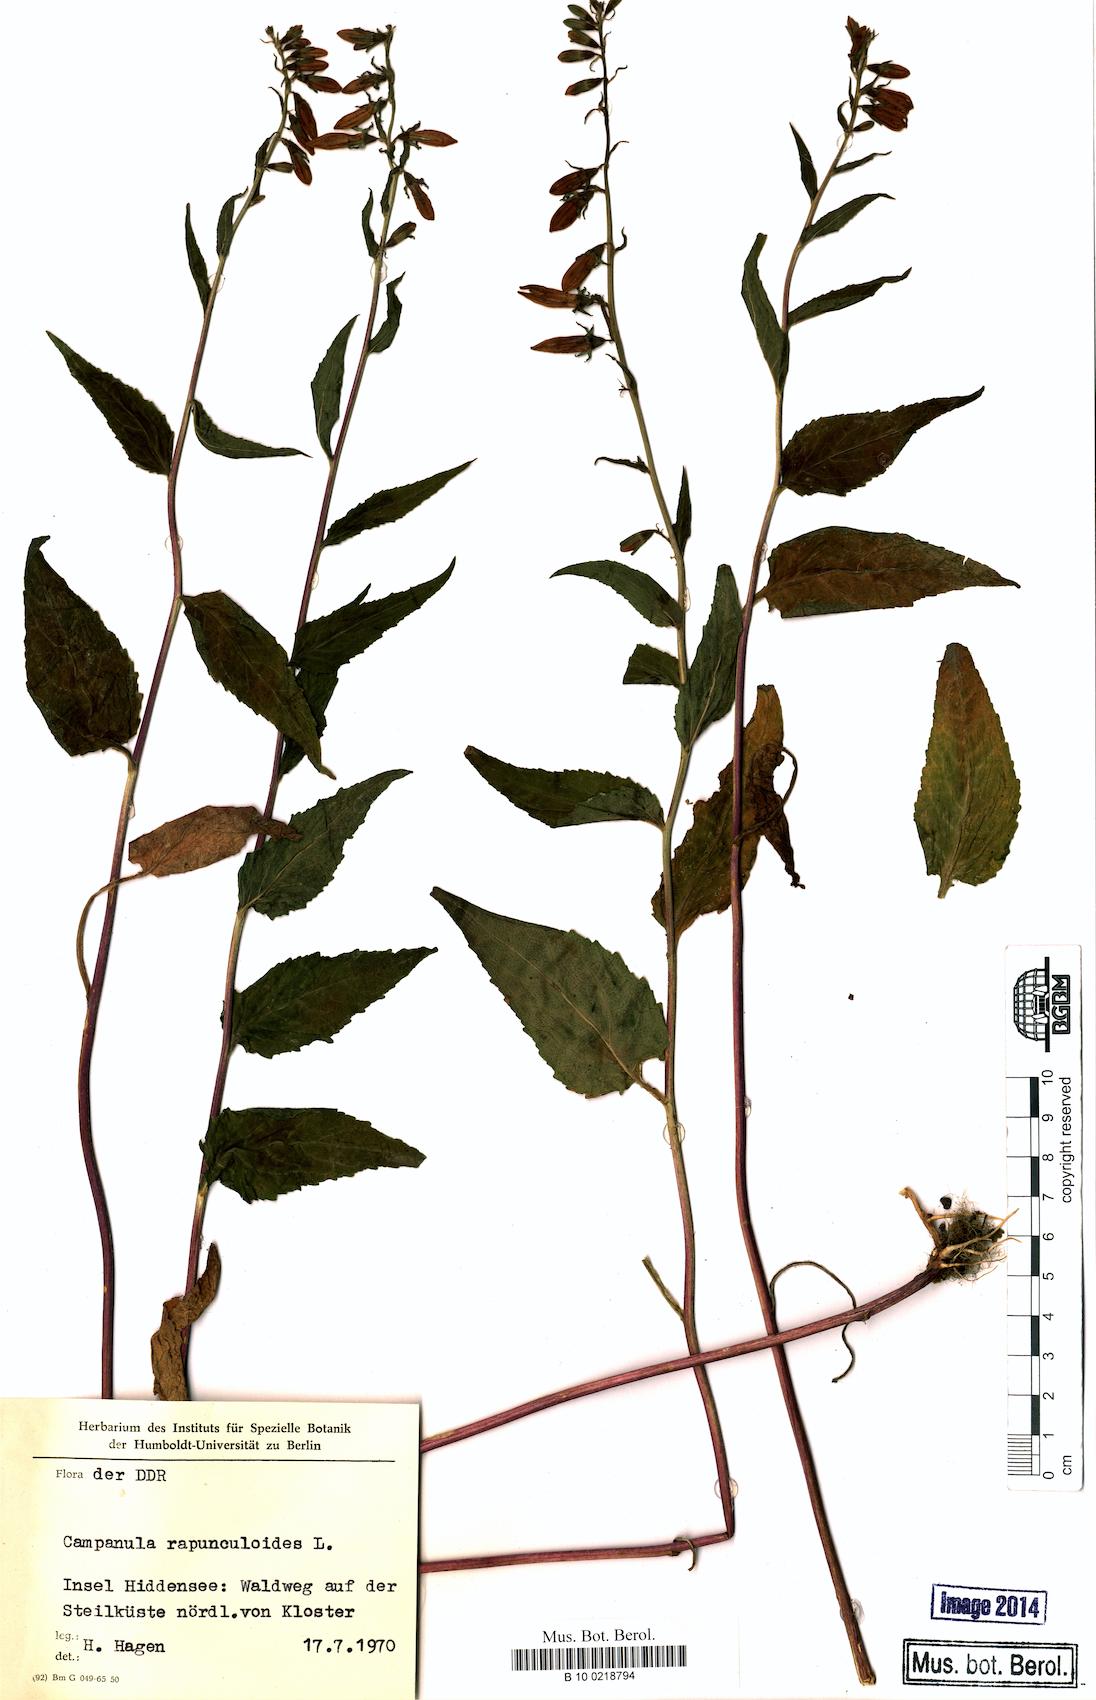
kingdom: Plantae
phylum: Tracheophyta
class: Magnoliopsida
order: Asterales
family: Campanulaceae
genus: Campanula
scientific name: Campanula rapunculoides
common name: Creeping bellflower
